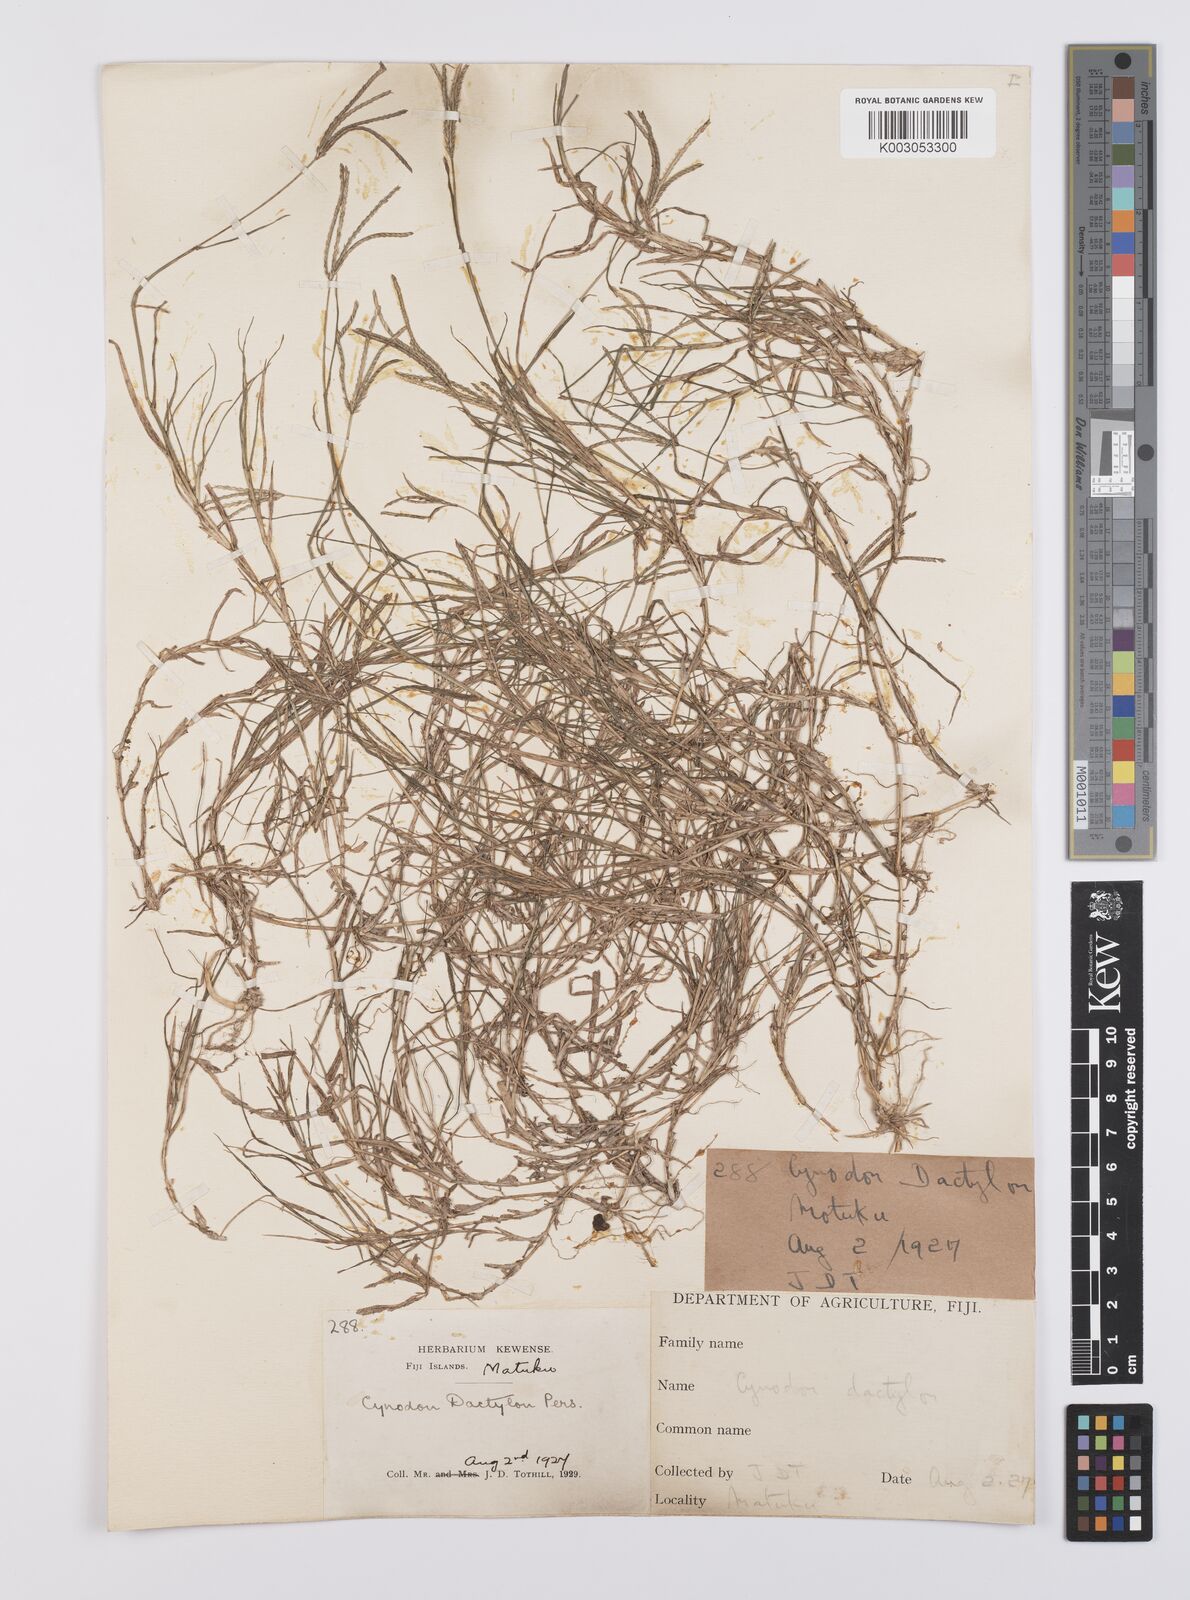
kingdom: Plantae
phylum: Tracheophyta
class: Liliopsida
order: Poales
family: Poaceae
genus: Cynodon
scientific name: Cynodon dactylon
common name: Bermuda grass
